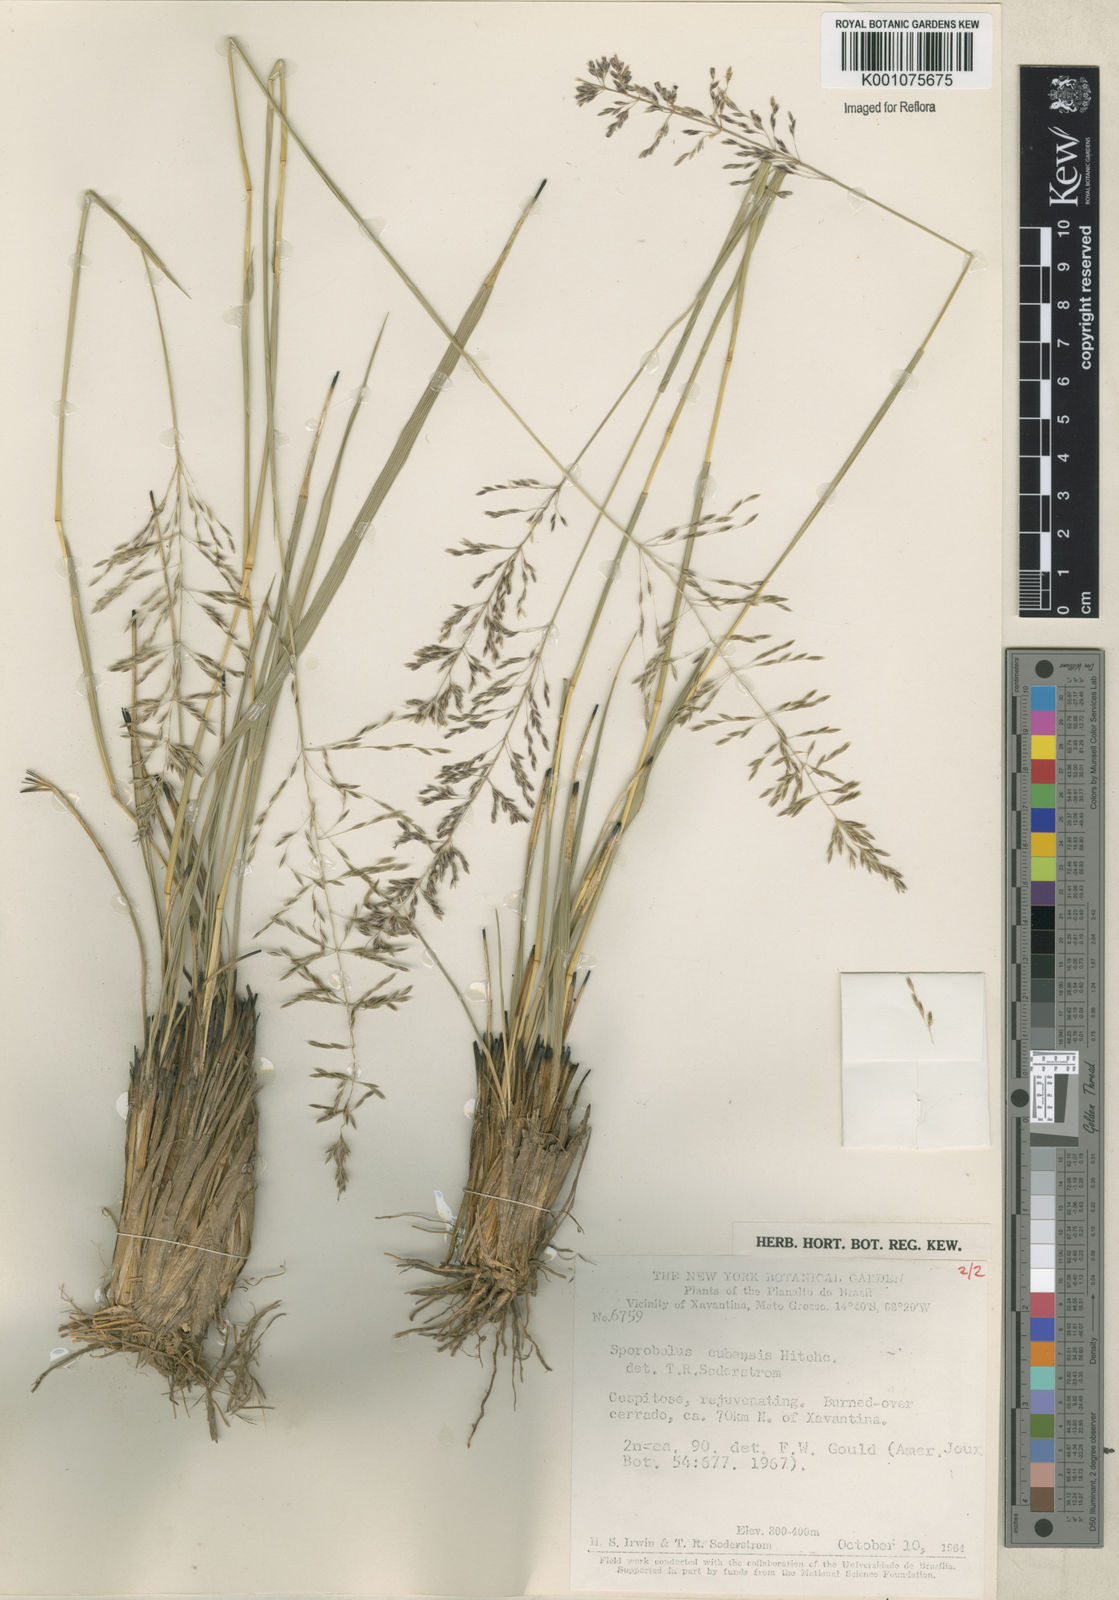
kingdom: Plantae
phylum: Tracheophyta
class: Liliopsida
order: Poales
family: Poaceae
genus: Sporobolus
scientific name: Sporobolus cubensis
